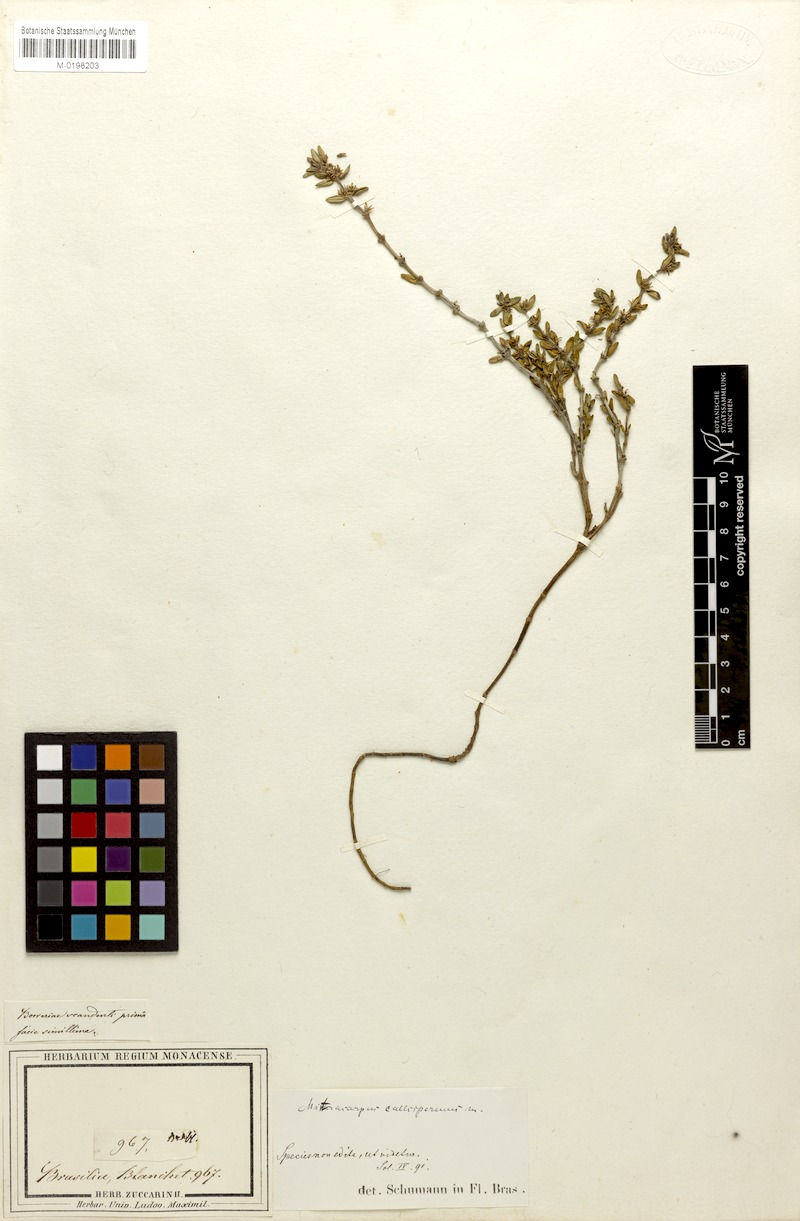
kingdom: Plantae
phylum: Tracheophyta
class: Magnoliopsida
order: Gentianales
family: Rubiaceae
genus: Mitracarpus
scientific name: Mitracarpus eichleri
